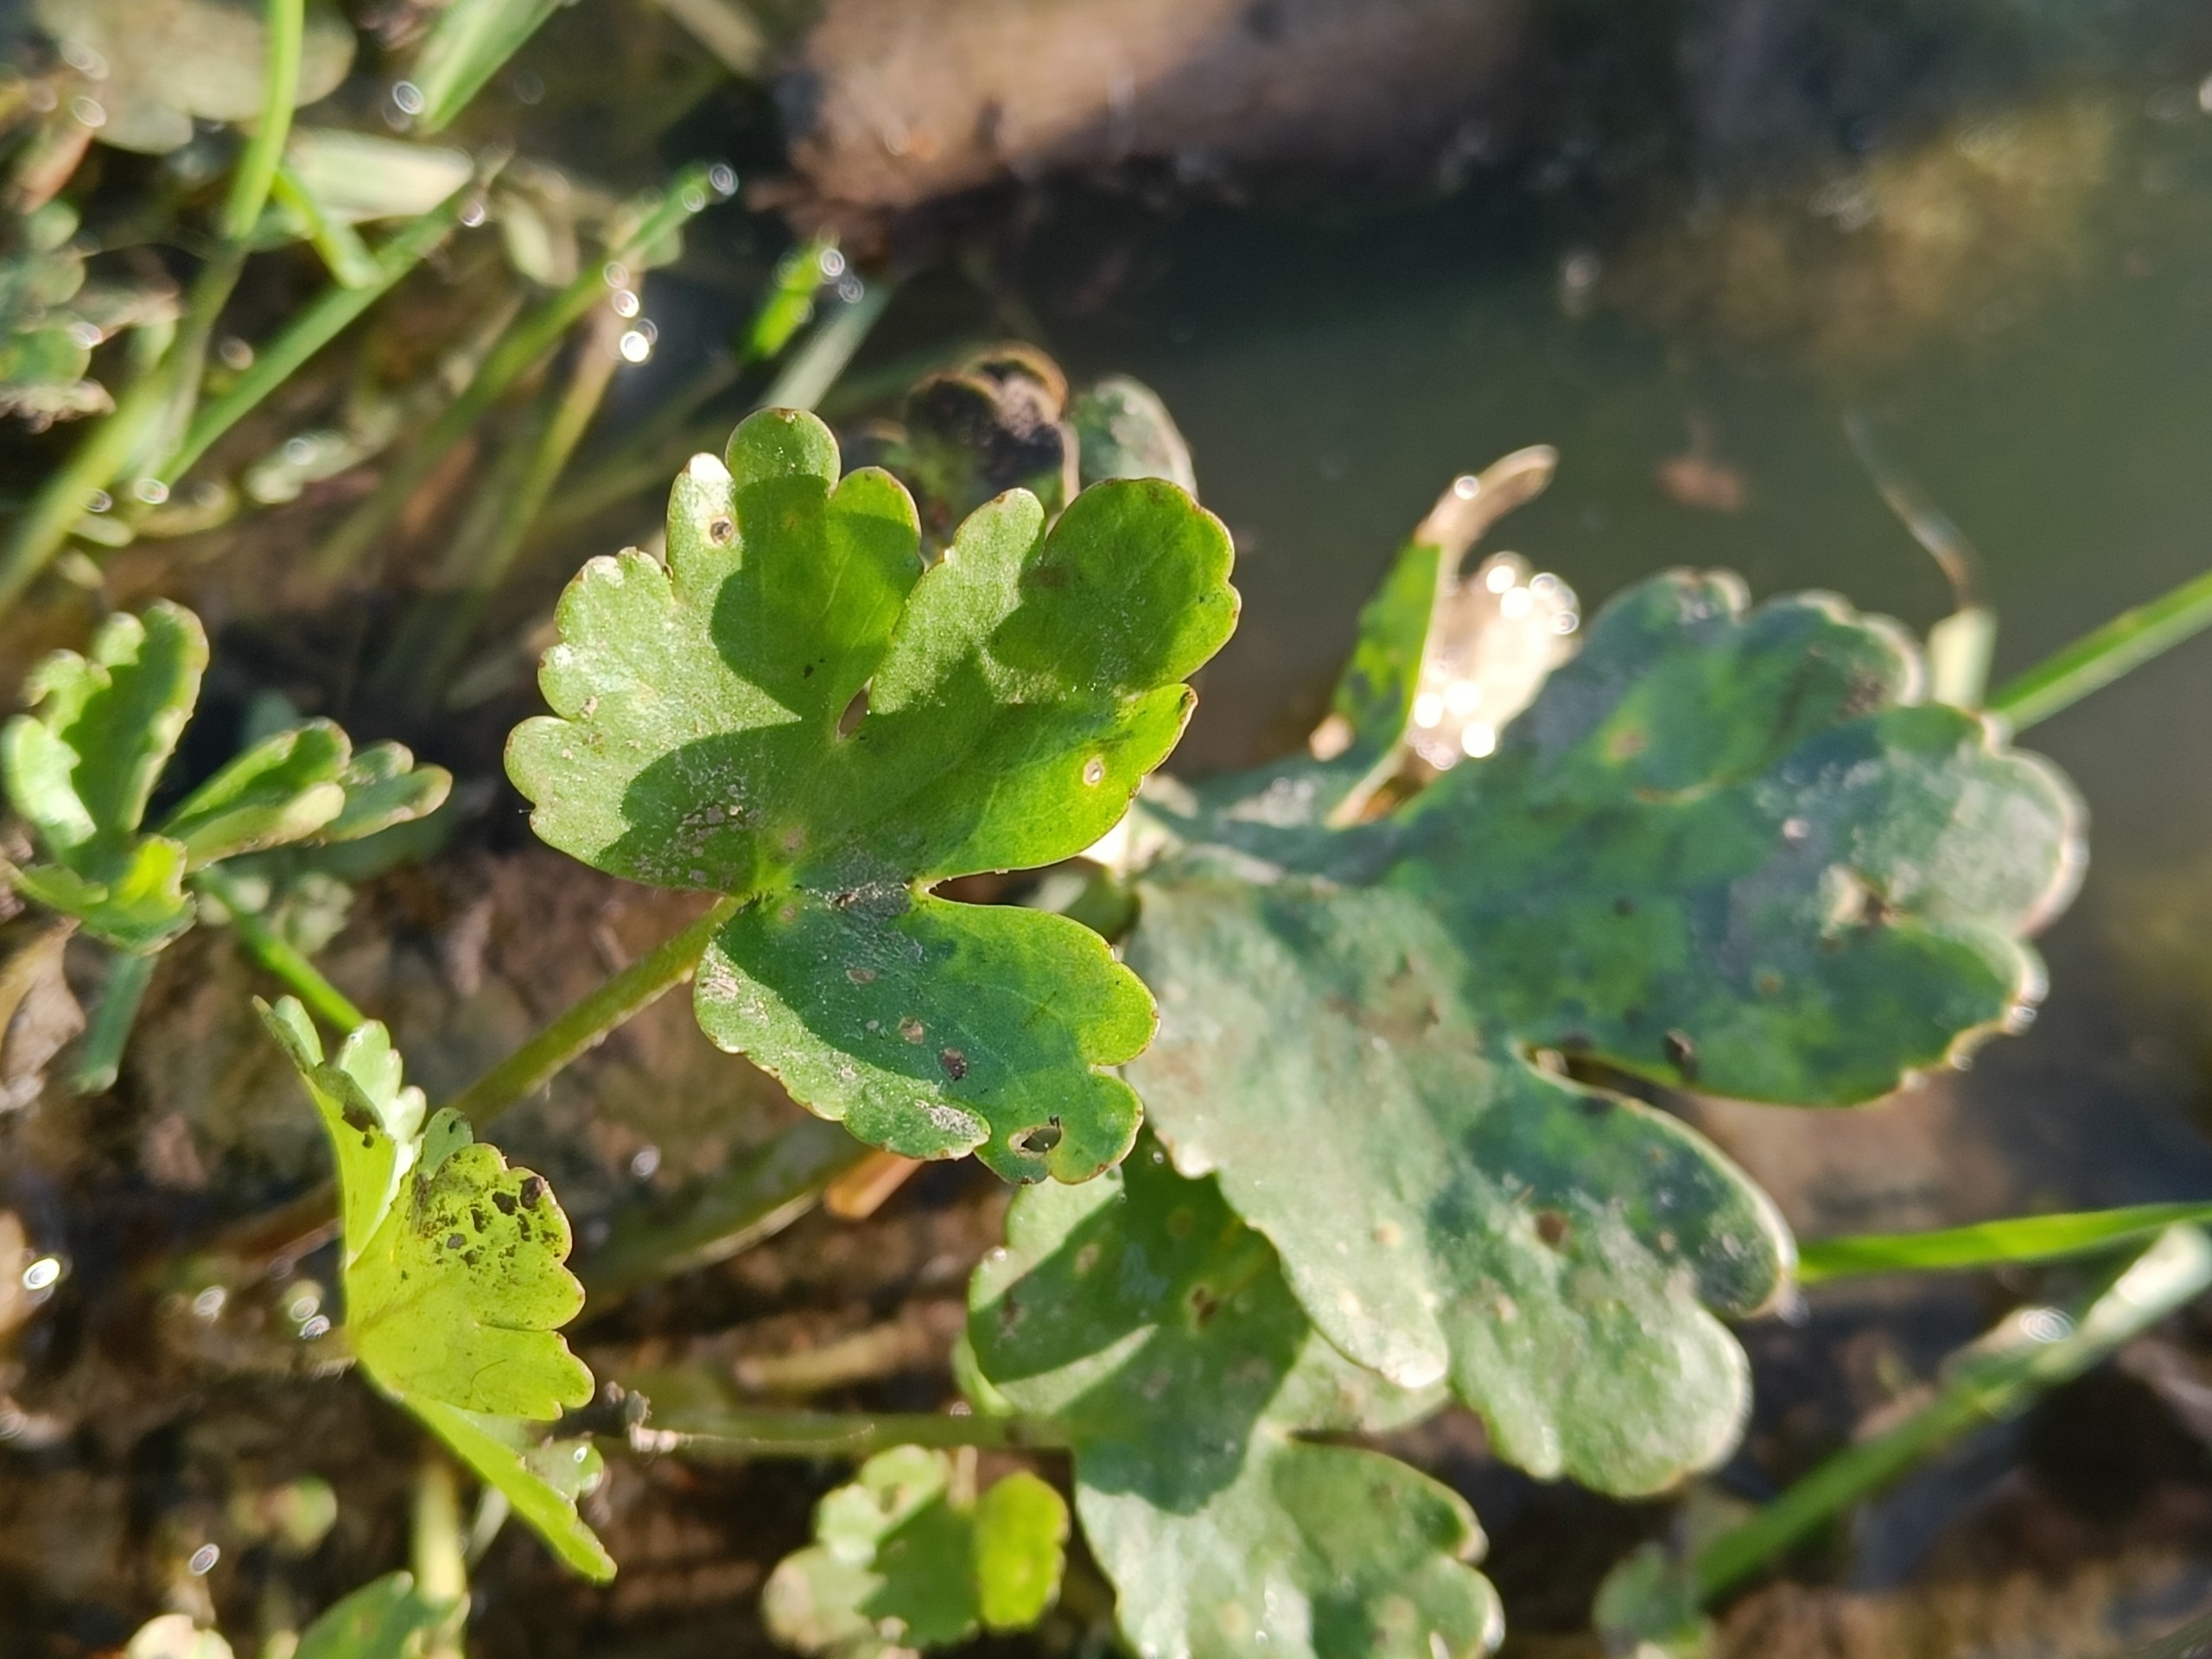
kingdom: Plantae
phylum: Tracheophyta
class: Magnoliopsida
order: Ranunculales
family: Ranunculaceae
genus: Ranunculus
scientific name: Ranunculus sceleratus
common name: Tigger-ranunkel
